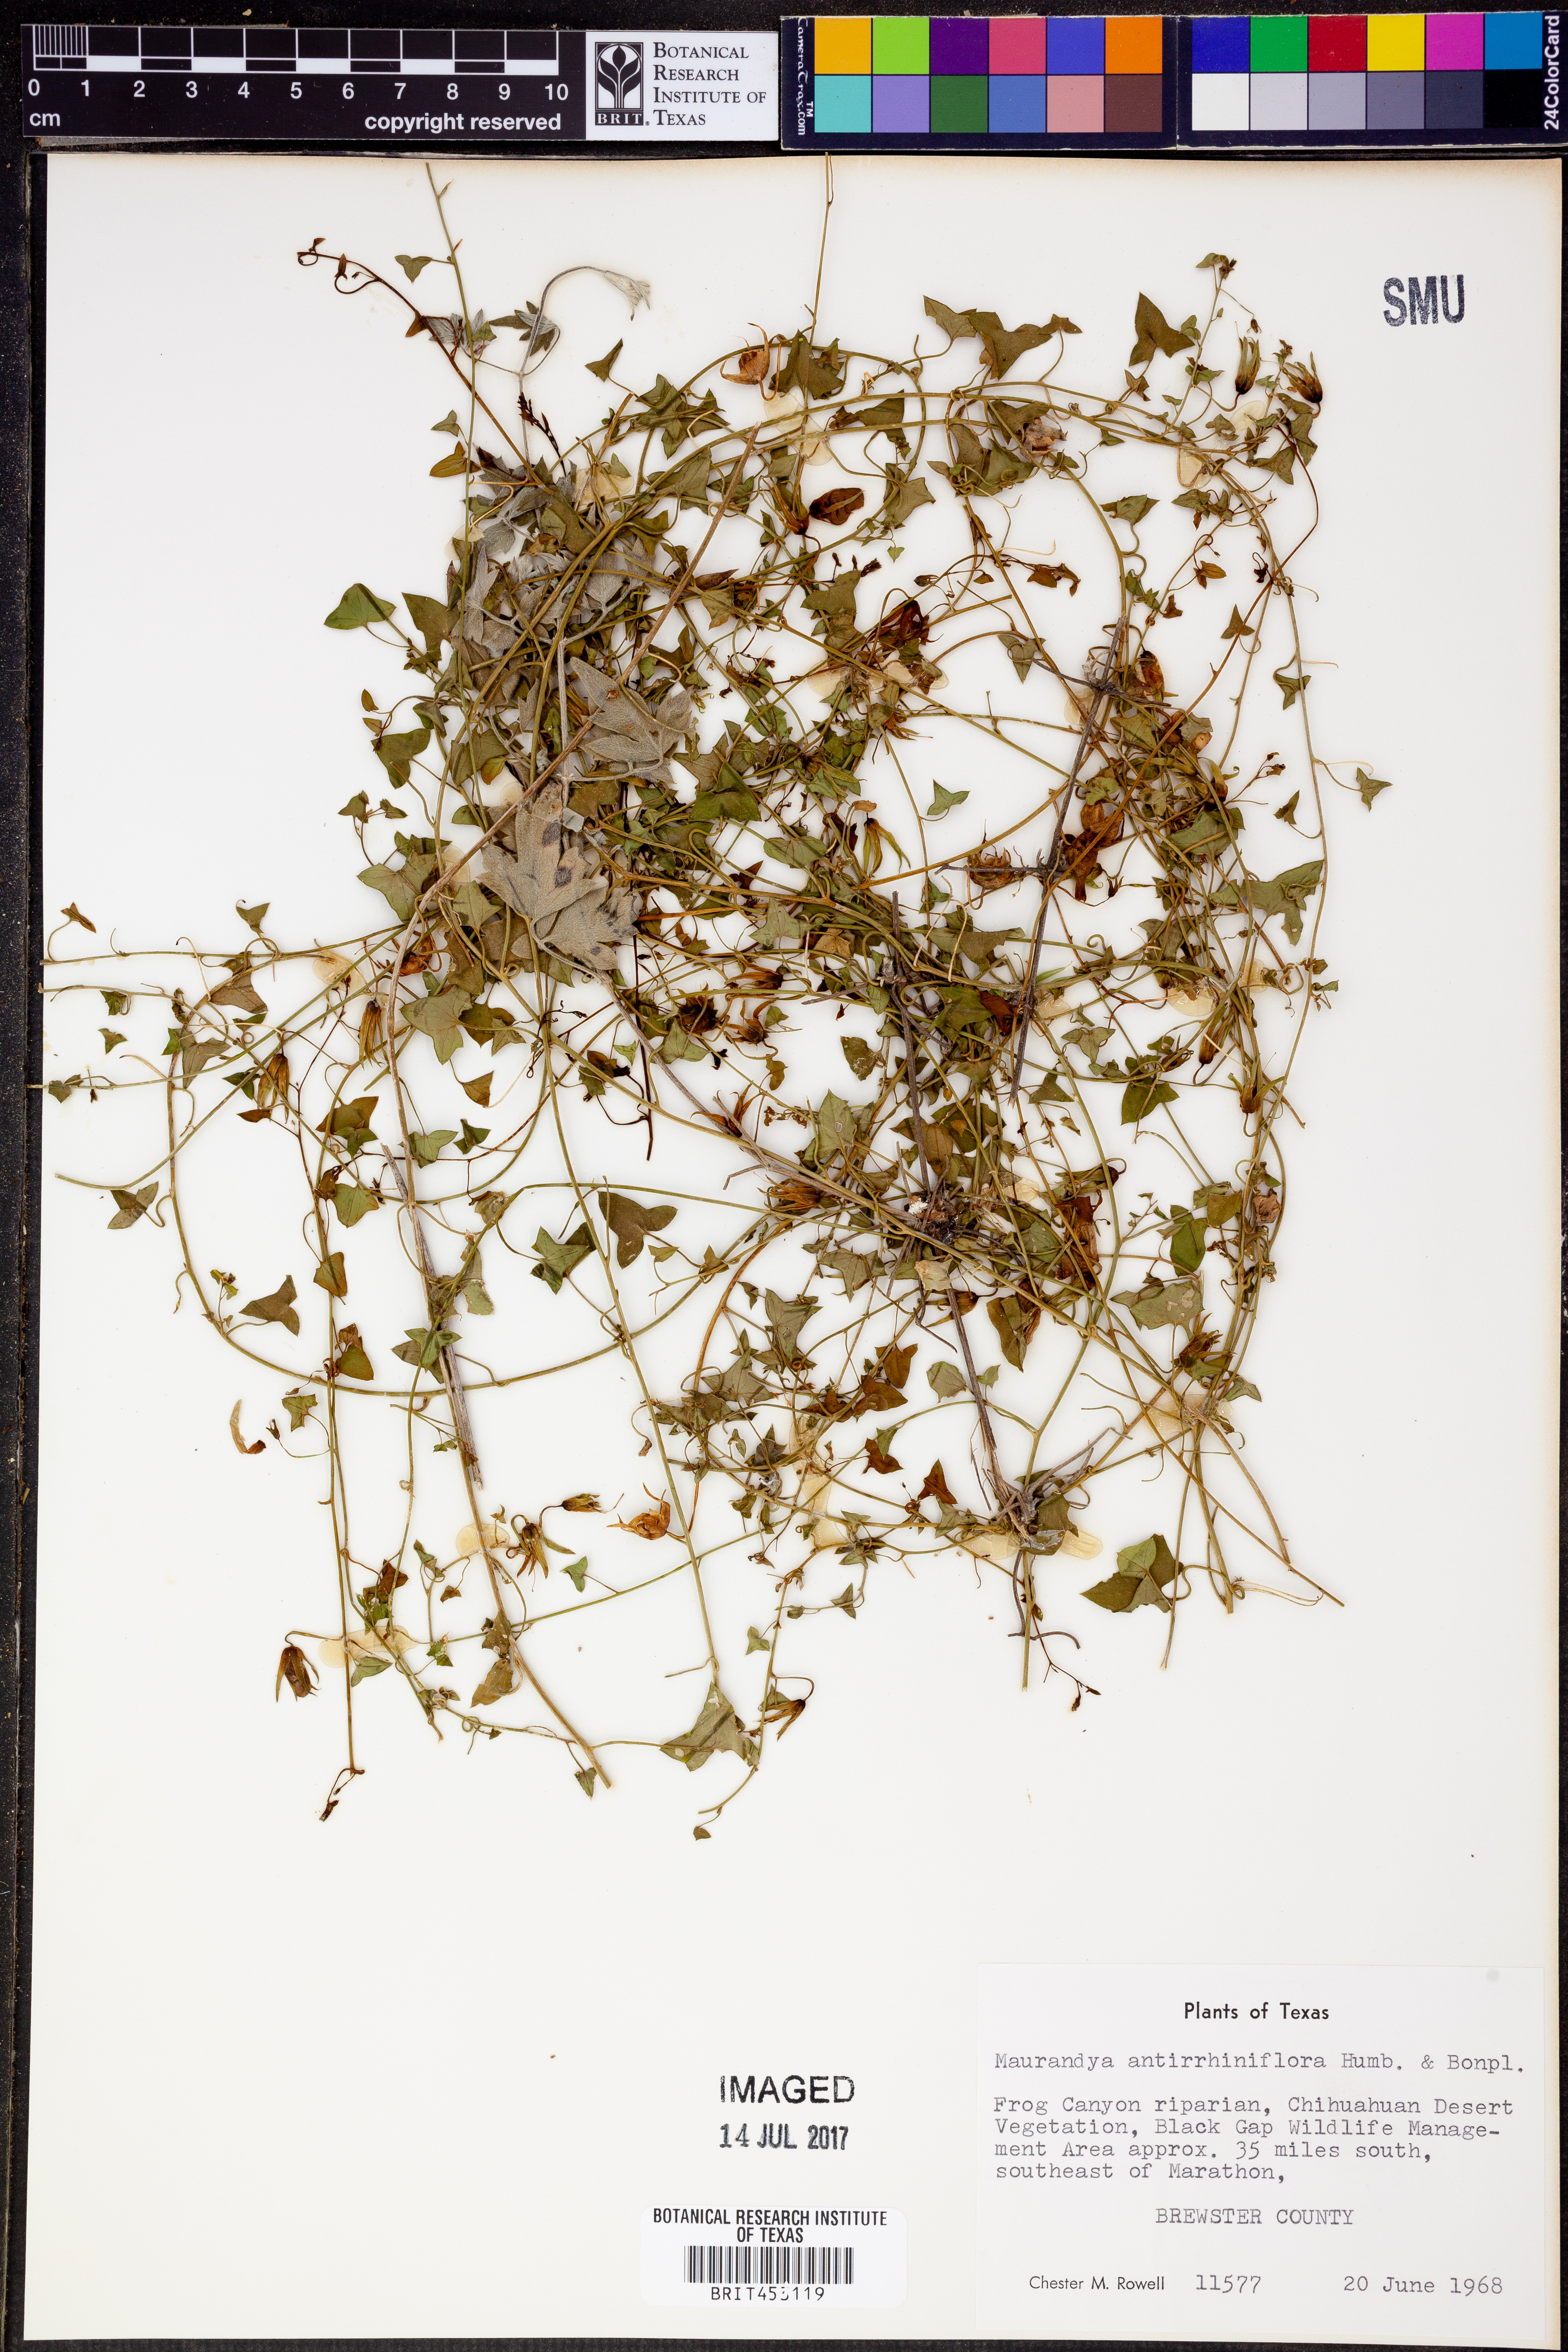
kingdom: Plantae
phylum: Tracheophyta
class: Magnoliopsida
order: Lamiales
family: Plantaginaceae
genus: Maurandella
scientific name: Maurandella antirrhiniflora
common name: Violet twining-snapdragon
